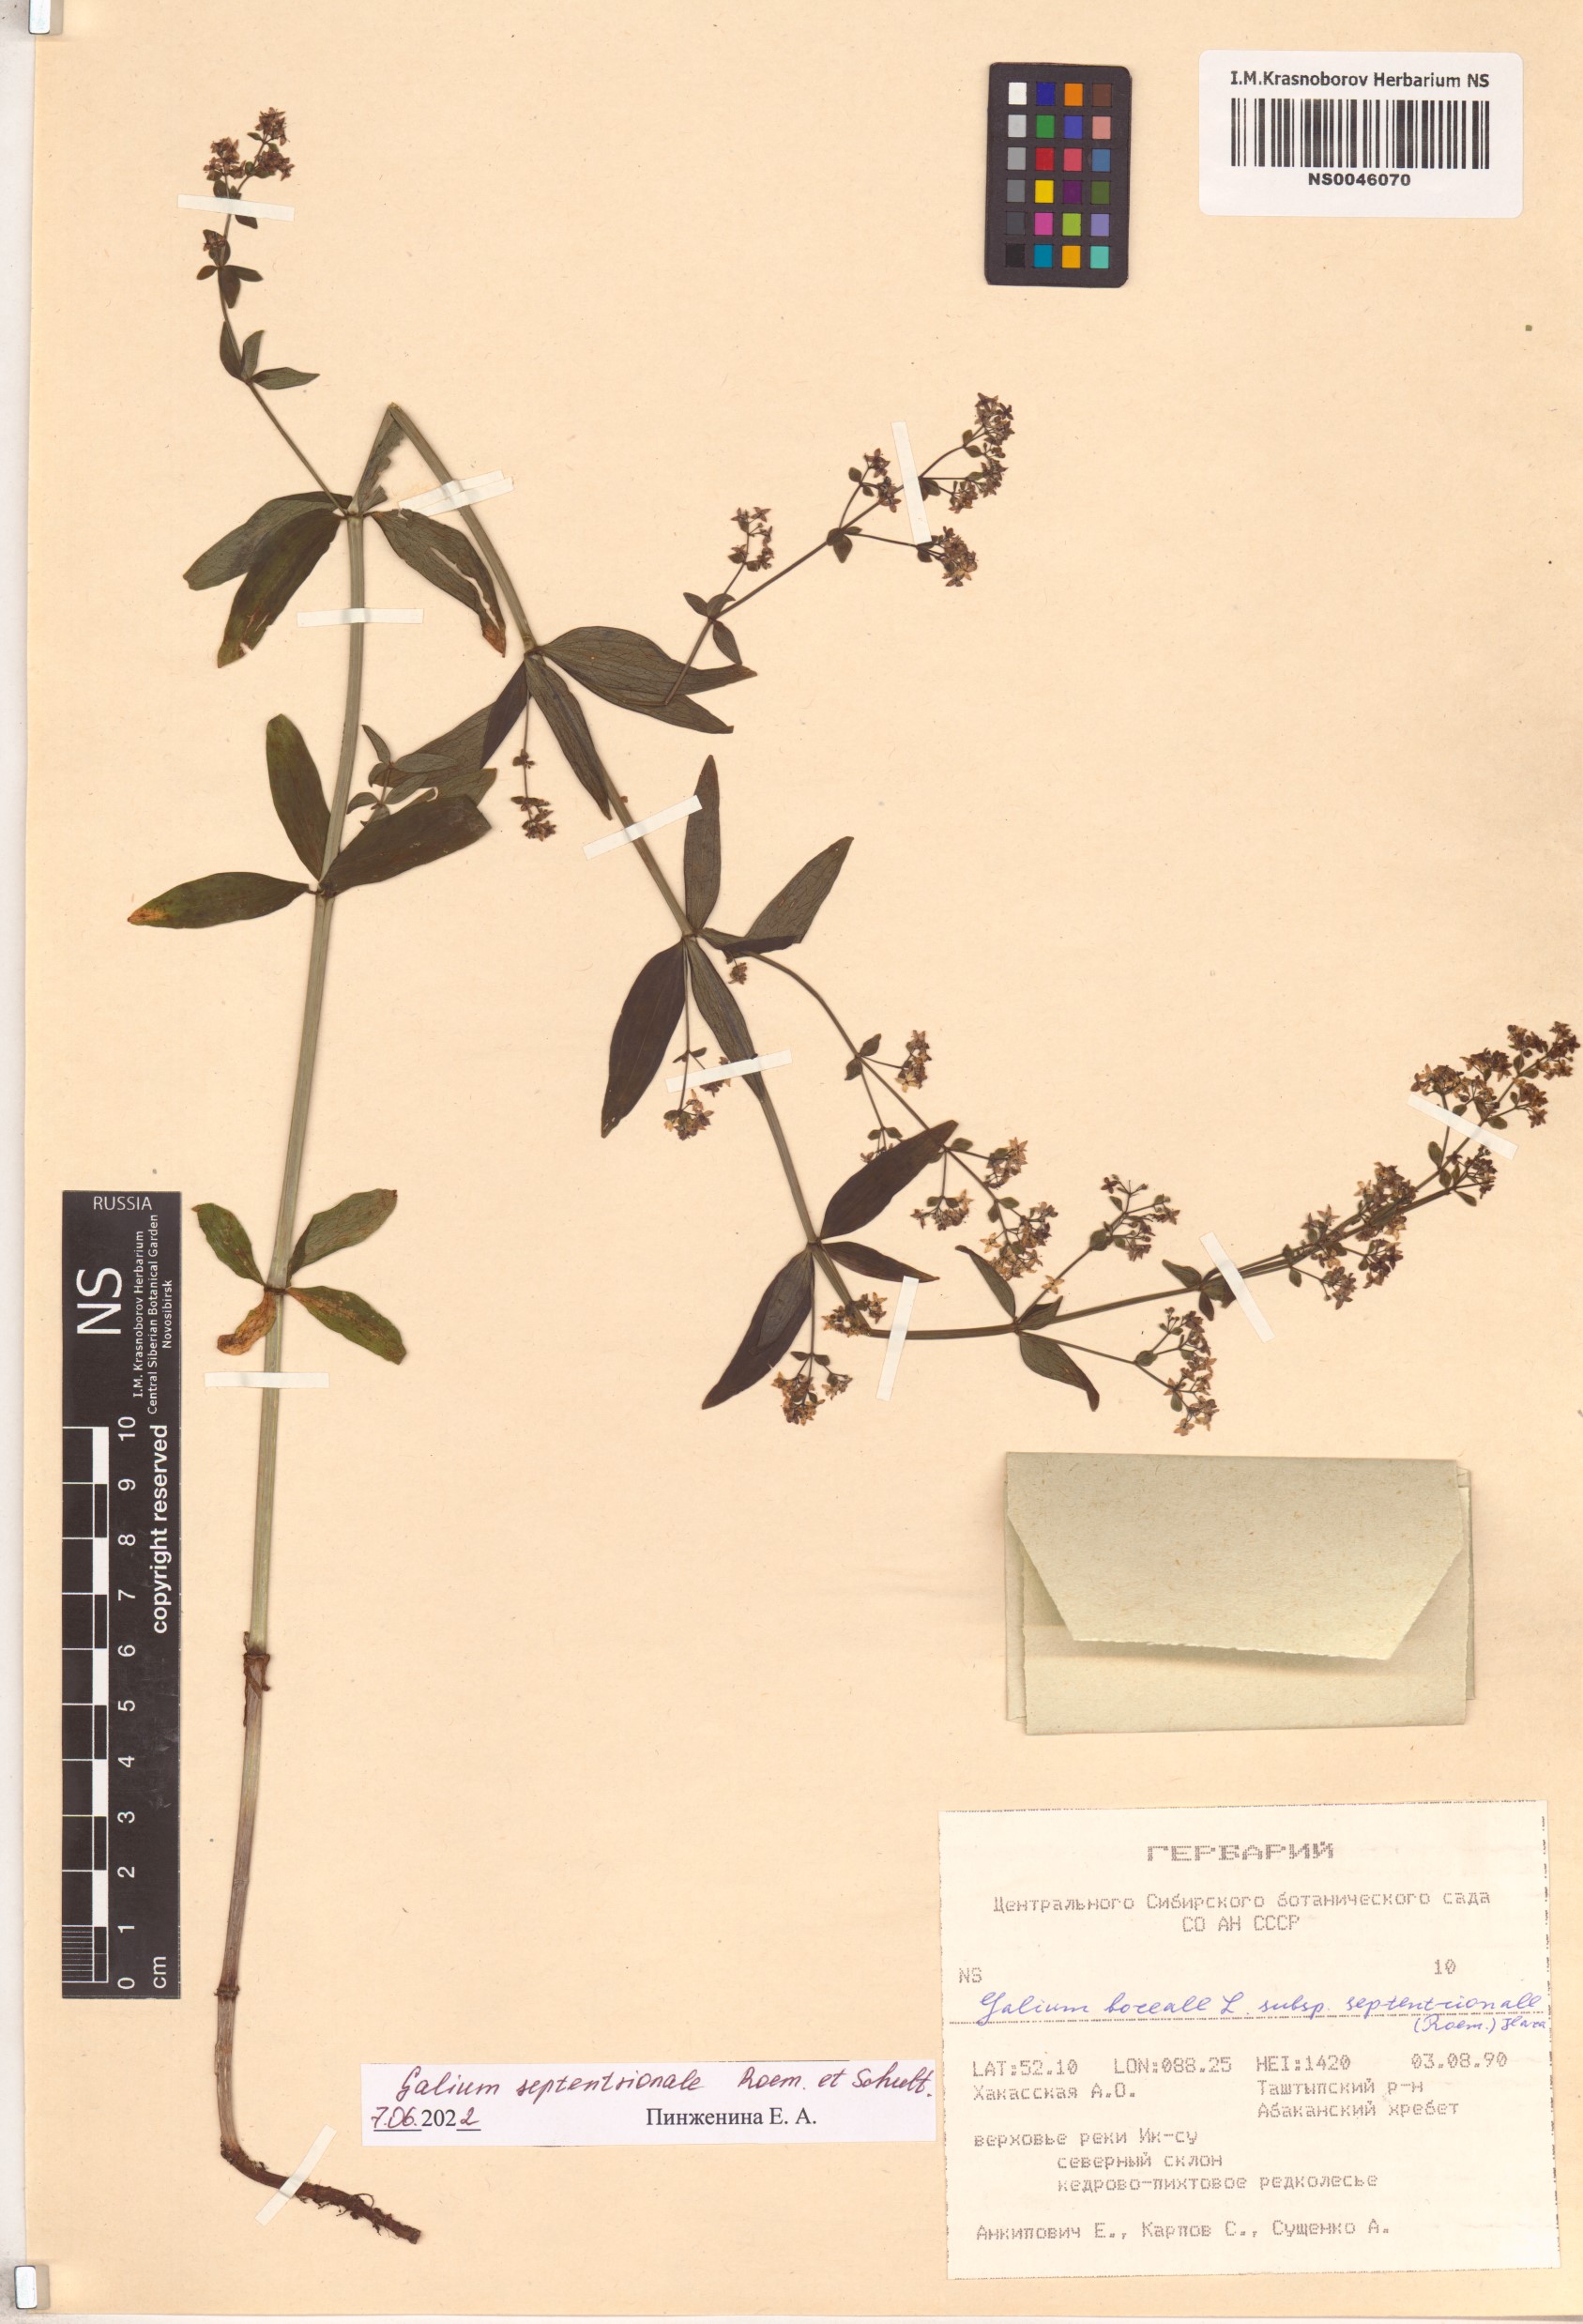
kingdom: Plantae
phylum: Tracheophyta
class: Magnoliopsida
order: Gentianales
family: Rubiaceae
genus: Galium
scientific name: Galium boreale
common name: Northern bedstraw
